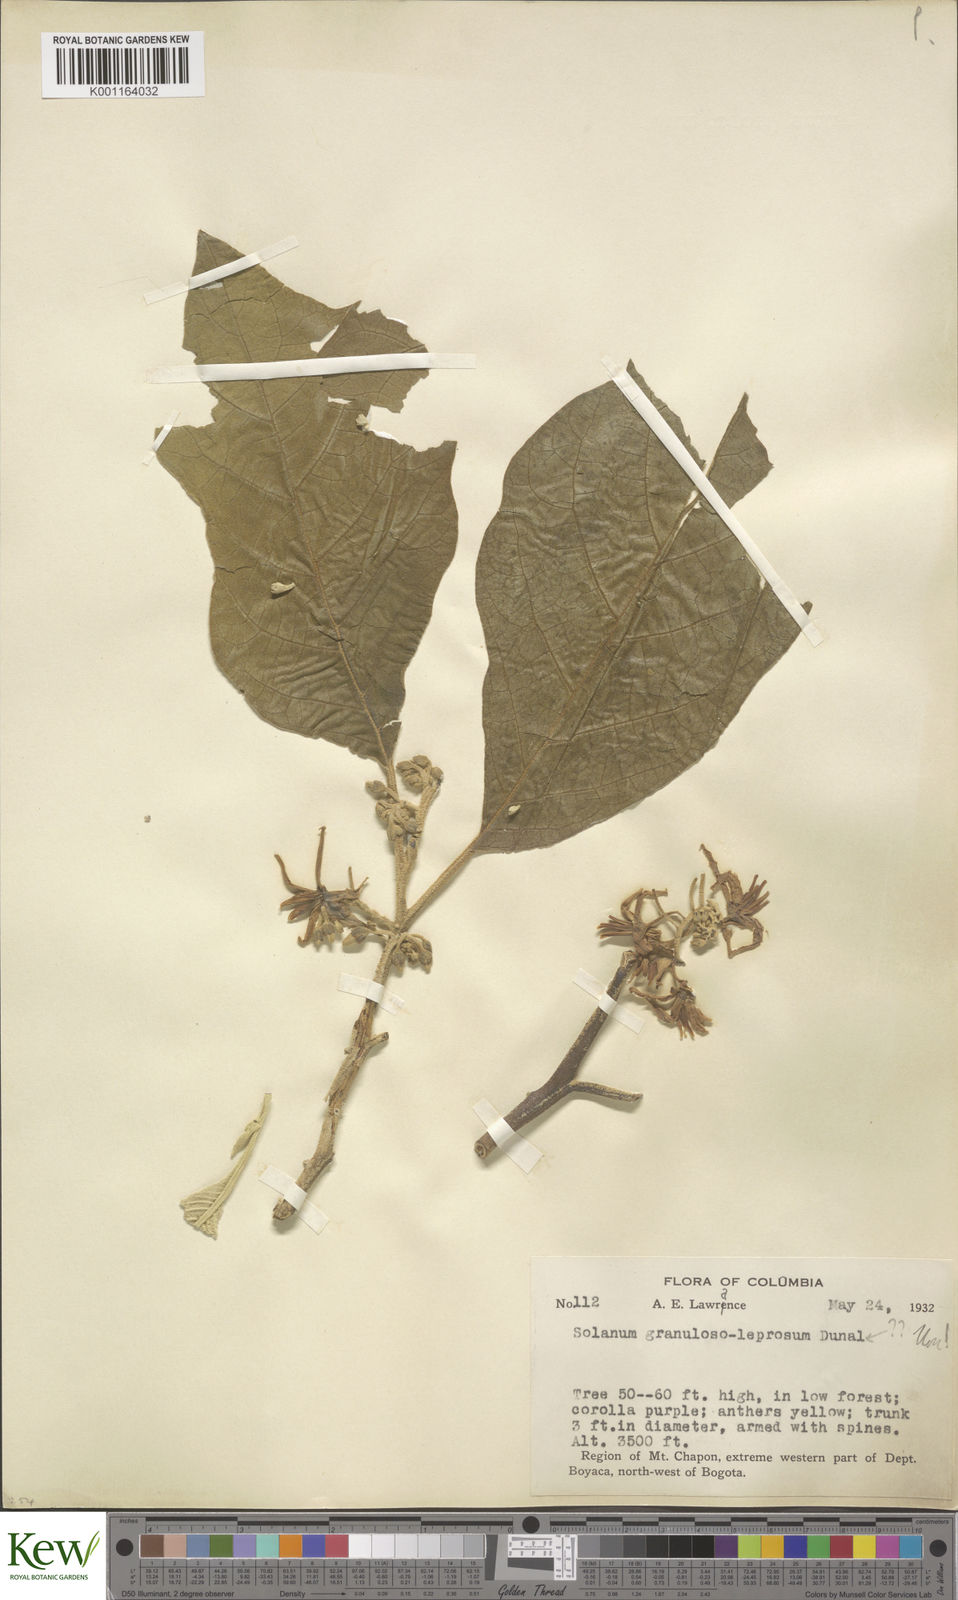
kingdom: Plantae
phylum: Tracheophyta
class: Magnoliopsida
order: Solanales
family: Solanaceae
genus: Solanum
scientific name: Solanum granulosoleprosum
